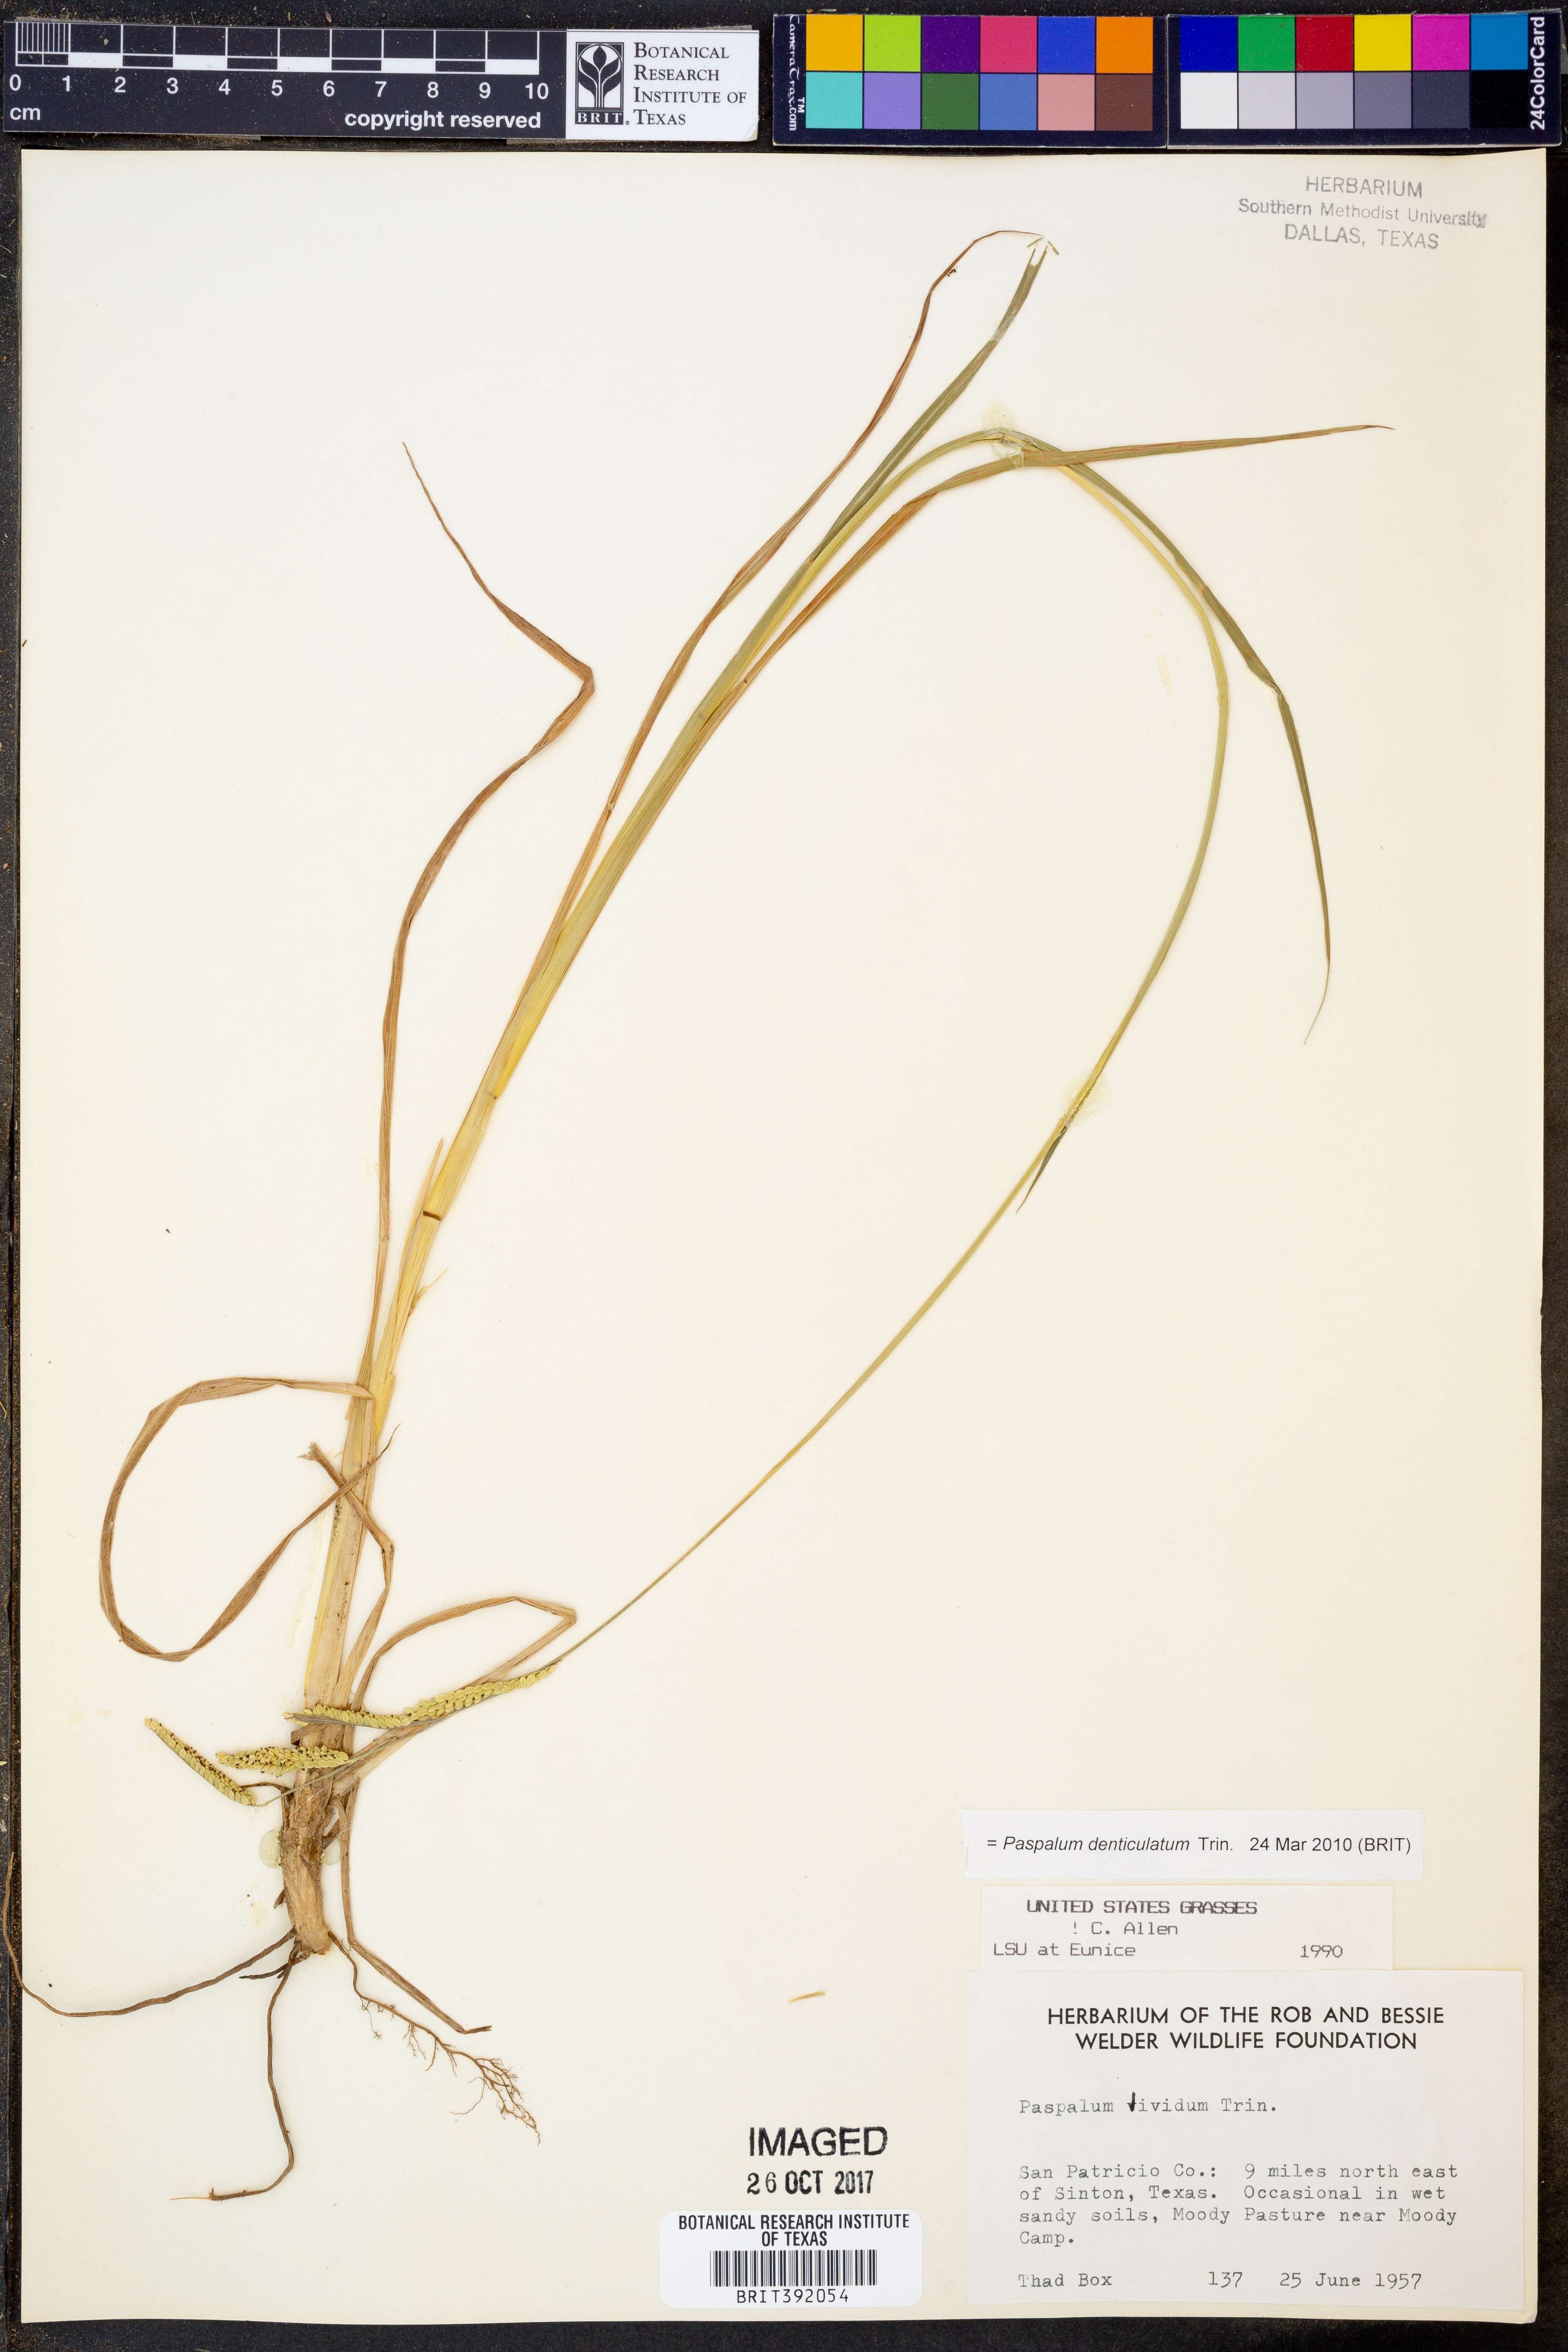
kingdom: Plantae
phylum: Tracheophyta
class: Liliopsida
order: Poales
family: Poaceae
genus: Paspalum
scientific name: Paspalum denticulatum
